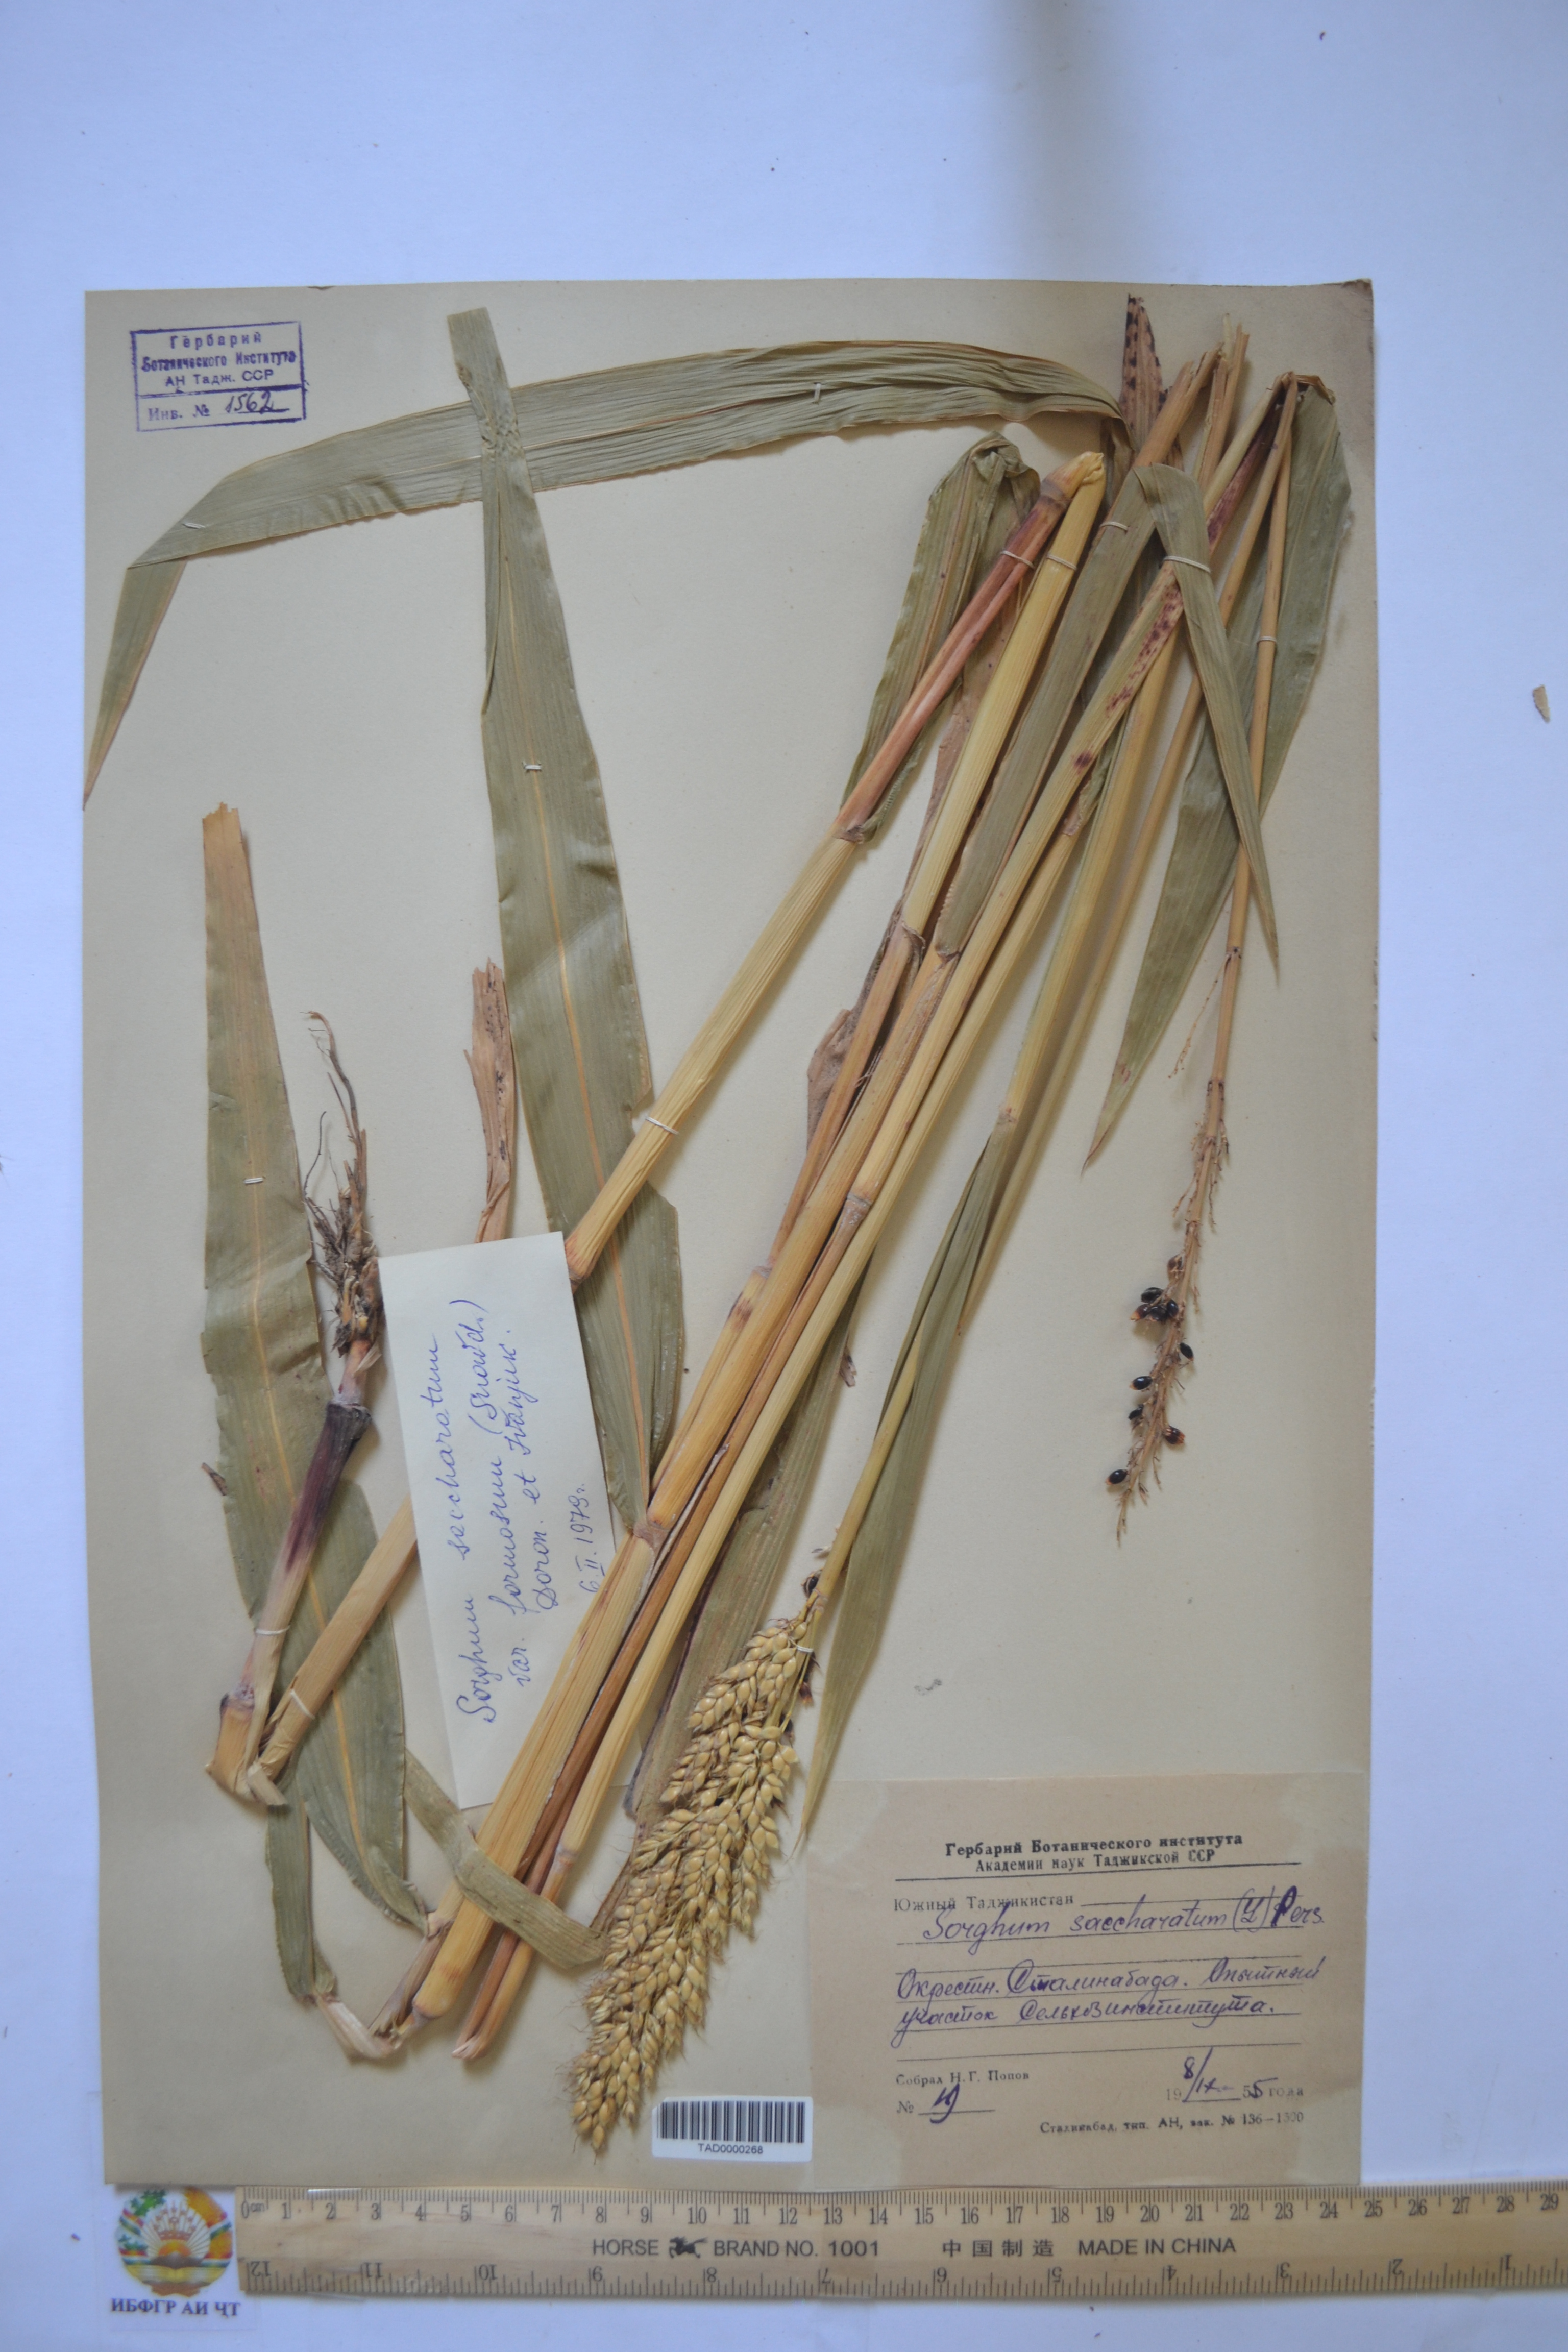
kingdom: Plantae
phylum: Tracheophyta
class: Liliopsida
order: Poales
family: Poaceae
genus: Sorghum
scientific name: Sorghum bicolor
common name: Sorghum
